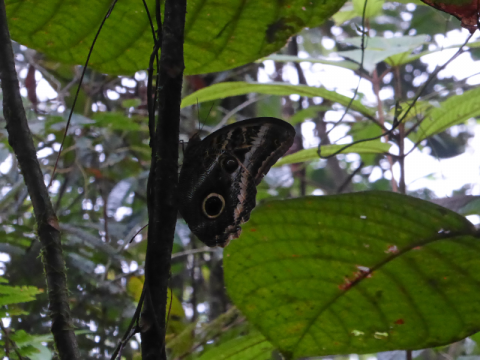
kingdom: Animalia
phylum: Arthropoda
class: Insecta
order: Lepidoptera
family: Nymphalidae
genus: Caligo
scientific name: Caligo
